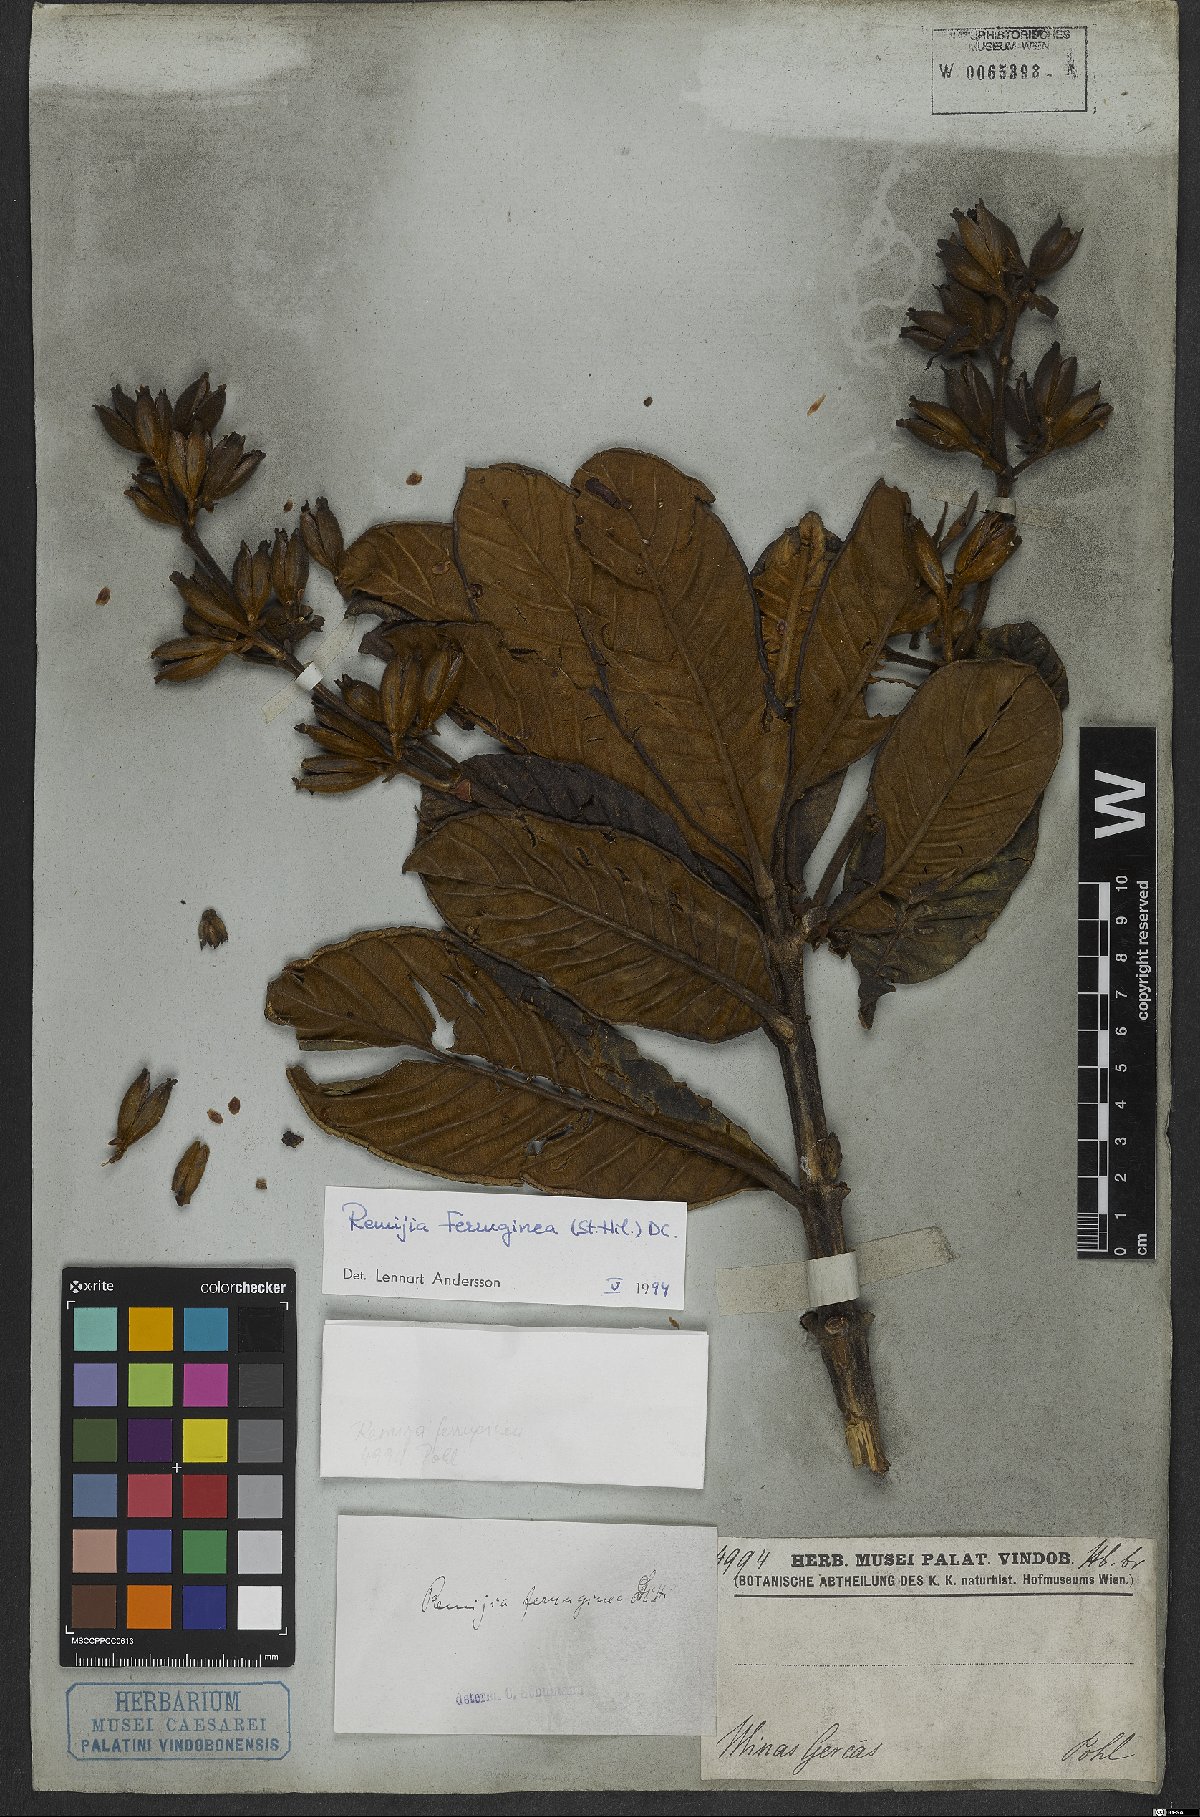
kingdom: Plantae
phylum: Tracheophyta
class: Magnoliopsida
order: Gentianales
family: Rubiaceae
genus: Remijia
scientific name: Remijia ferruginea
